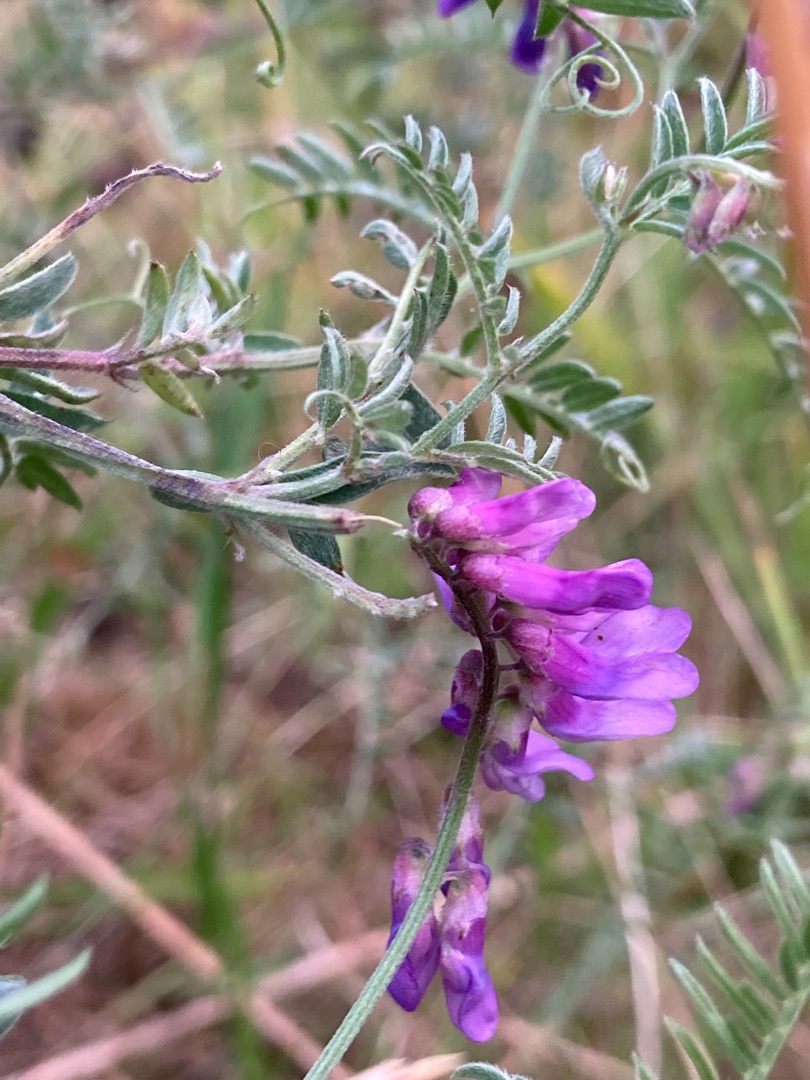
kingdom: Plantae
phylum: Tracheophyta
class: Magnoliopsida
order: Fabales
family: Fabaceae
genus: Vicia
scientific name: Vicia cracca
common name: Muse-vikke
